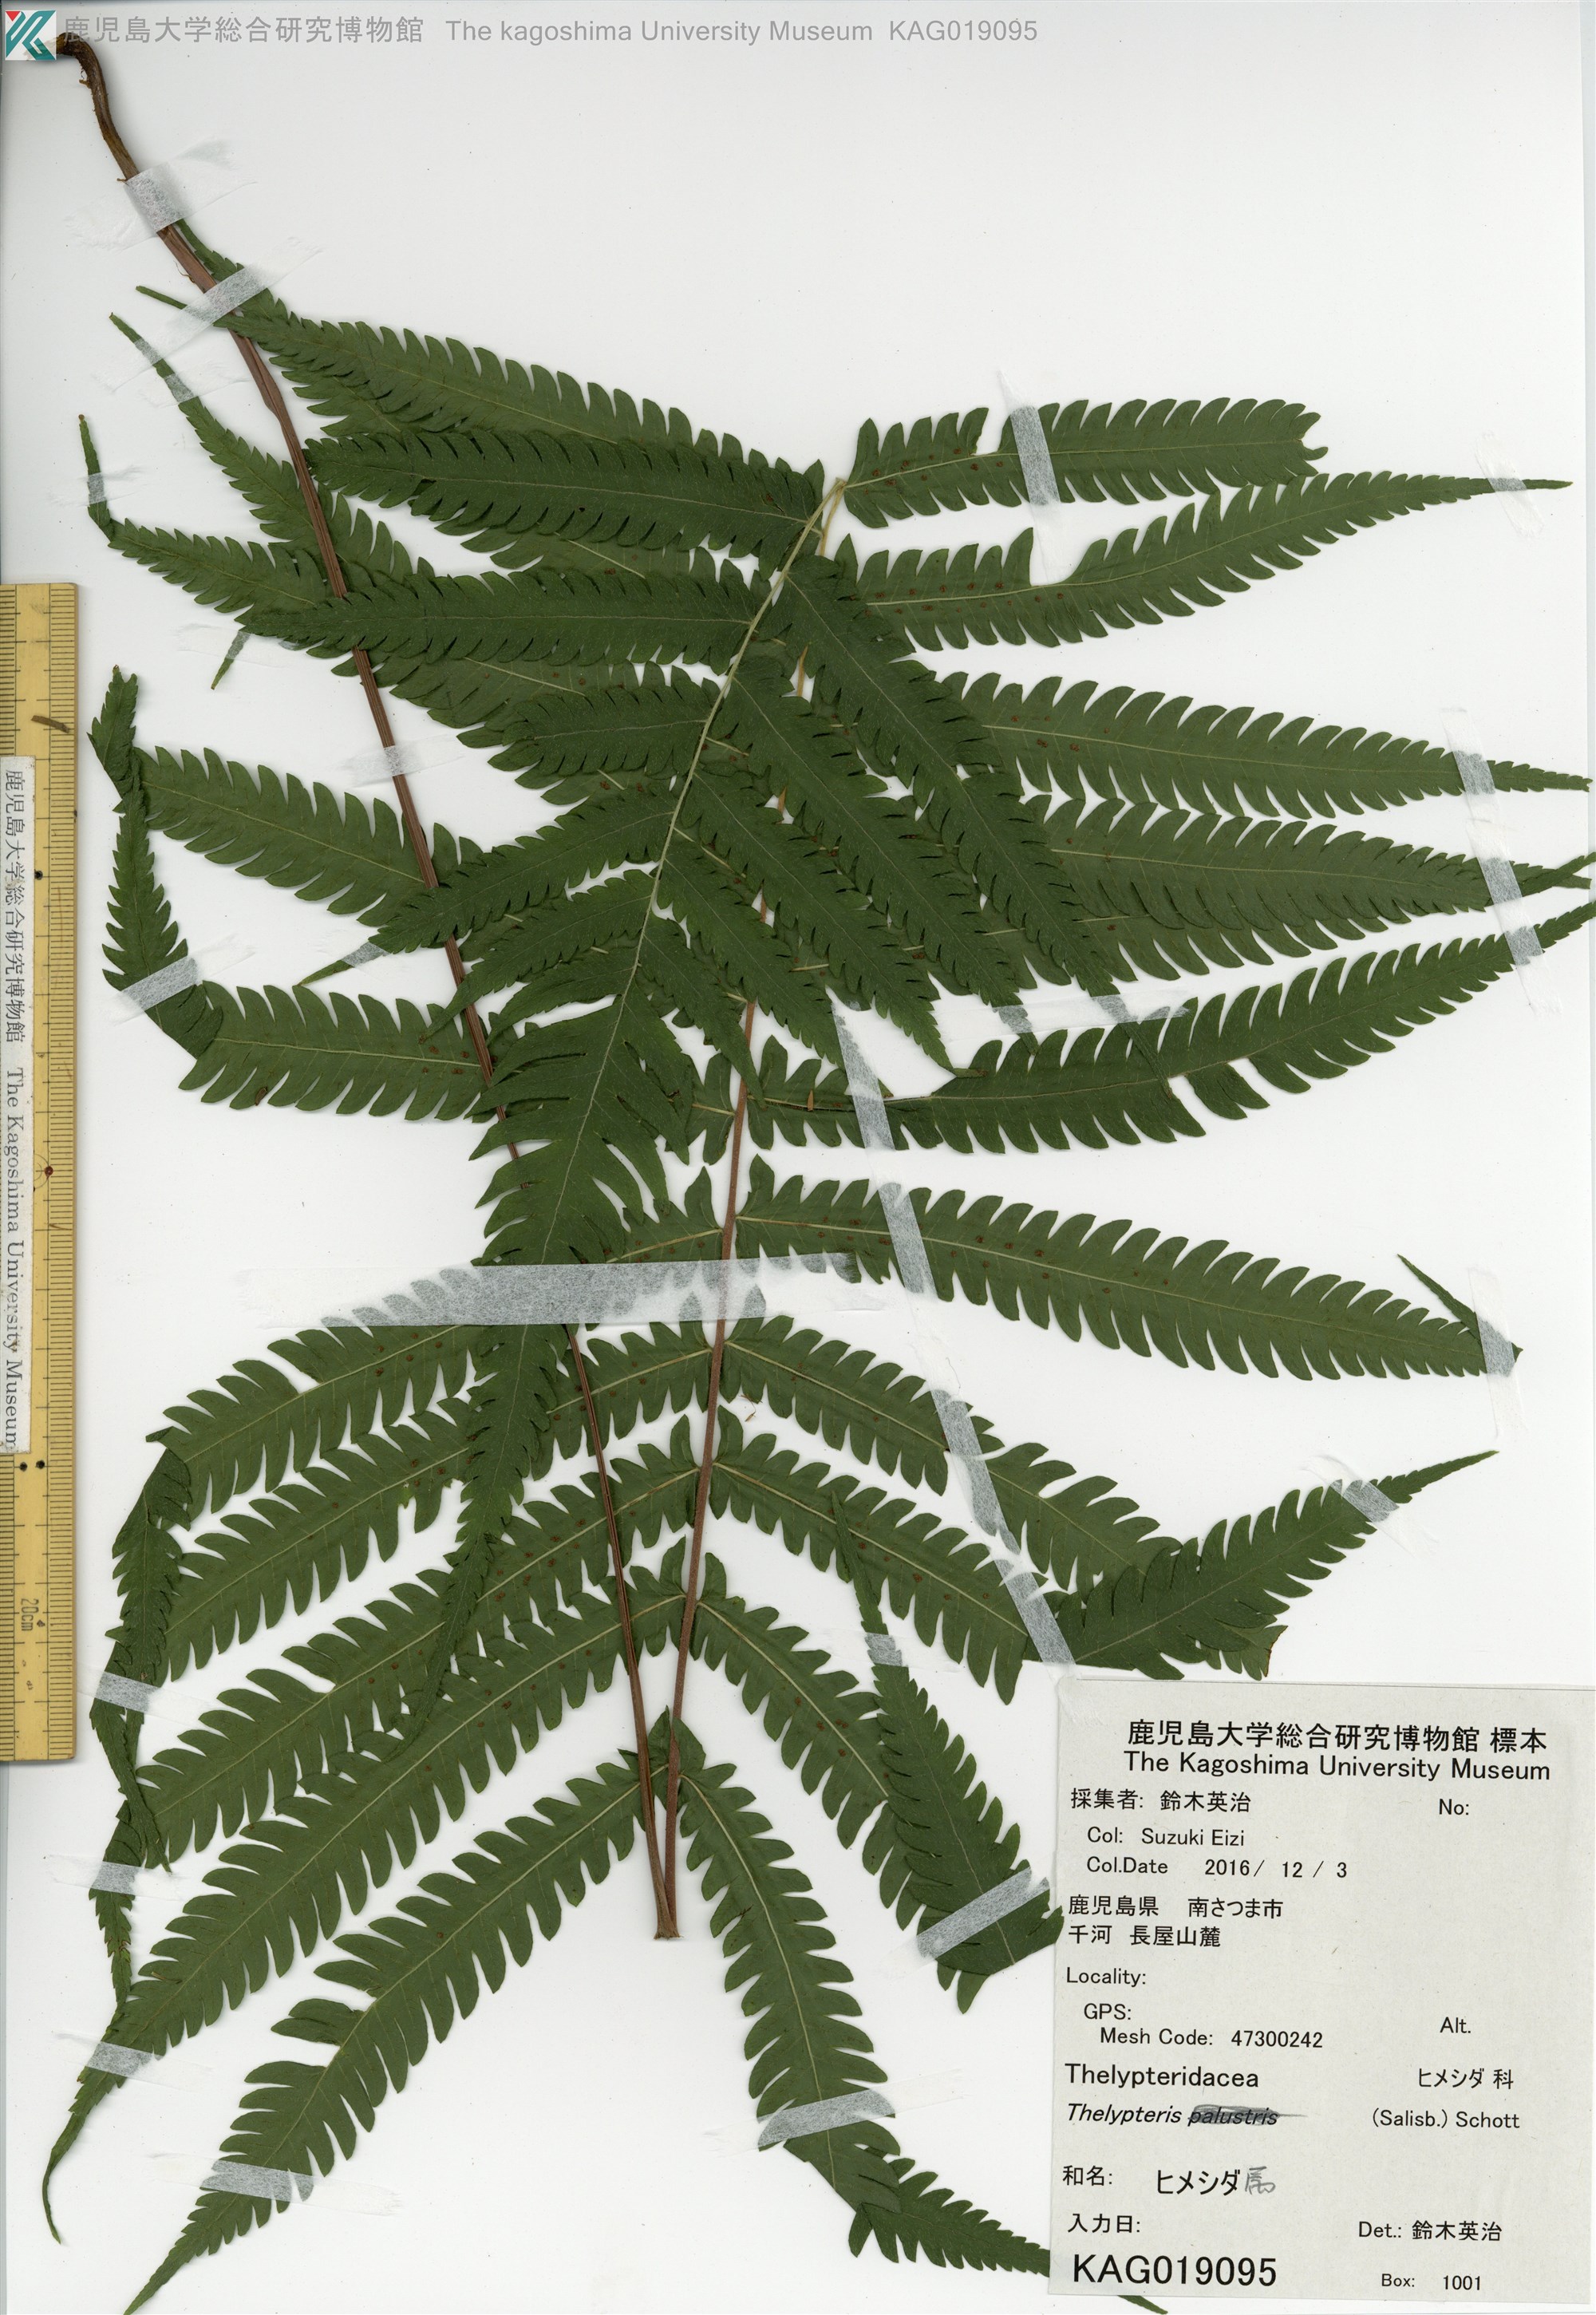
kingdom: Plantae
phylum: Tracheophyta
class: Polypodiopsida
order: Polypodiales
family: Thelypteridaceae
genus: Christella
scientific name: Christella parasitica
